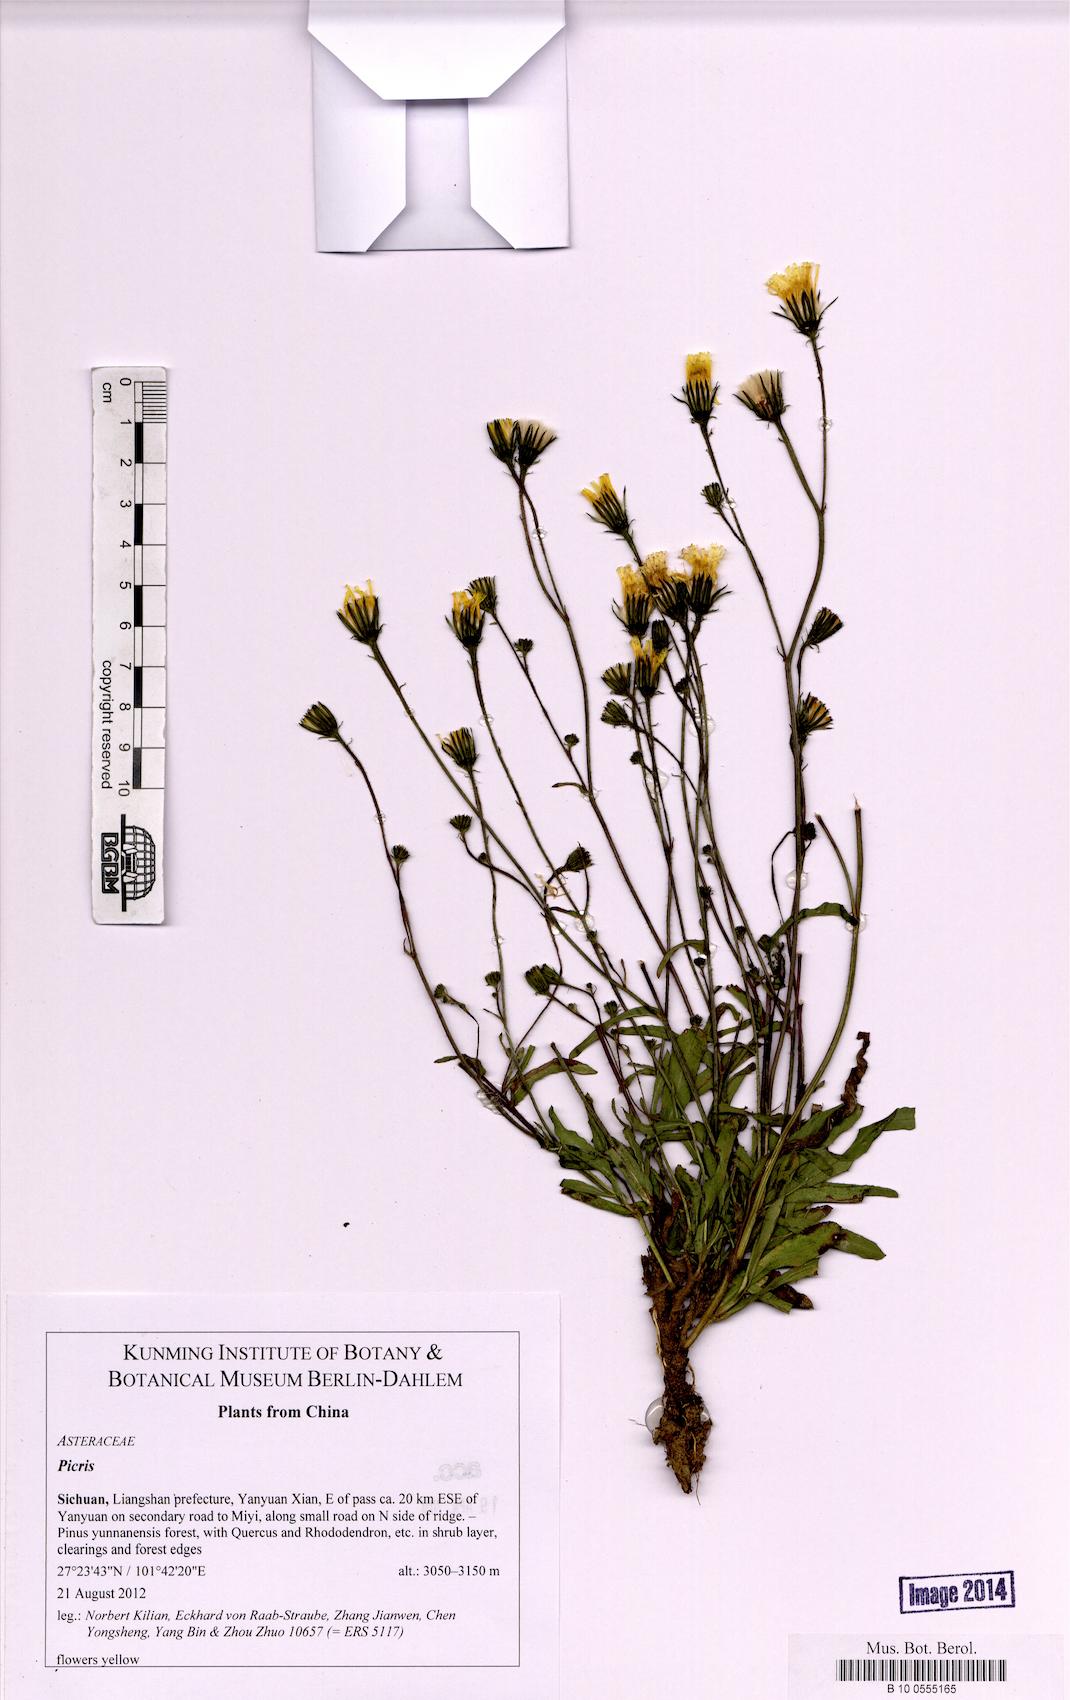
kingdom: Plantae
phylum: Tracheophyta
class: Magnoliopsida
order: Asterales
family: Asteraceae
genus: Picris
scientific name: Picris
